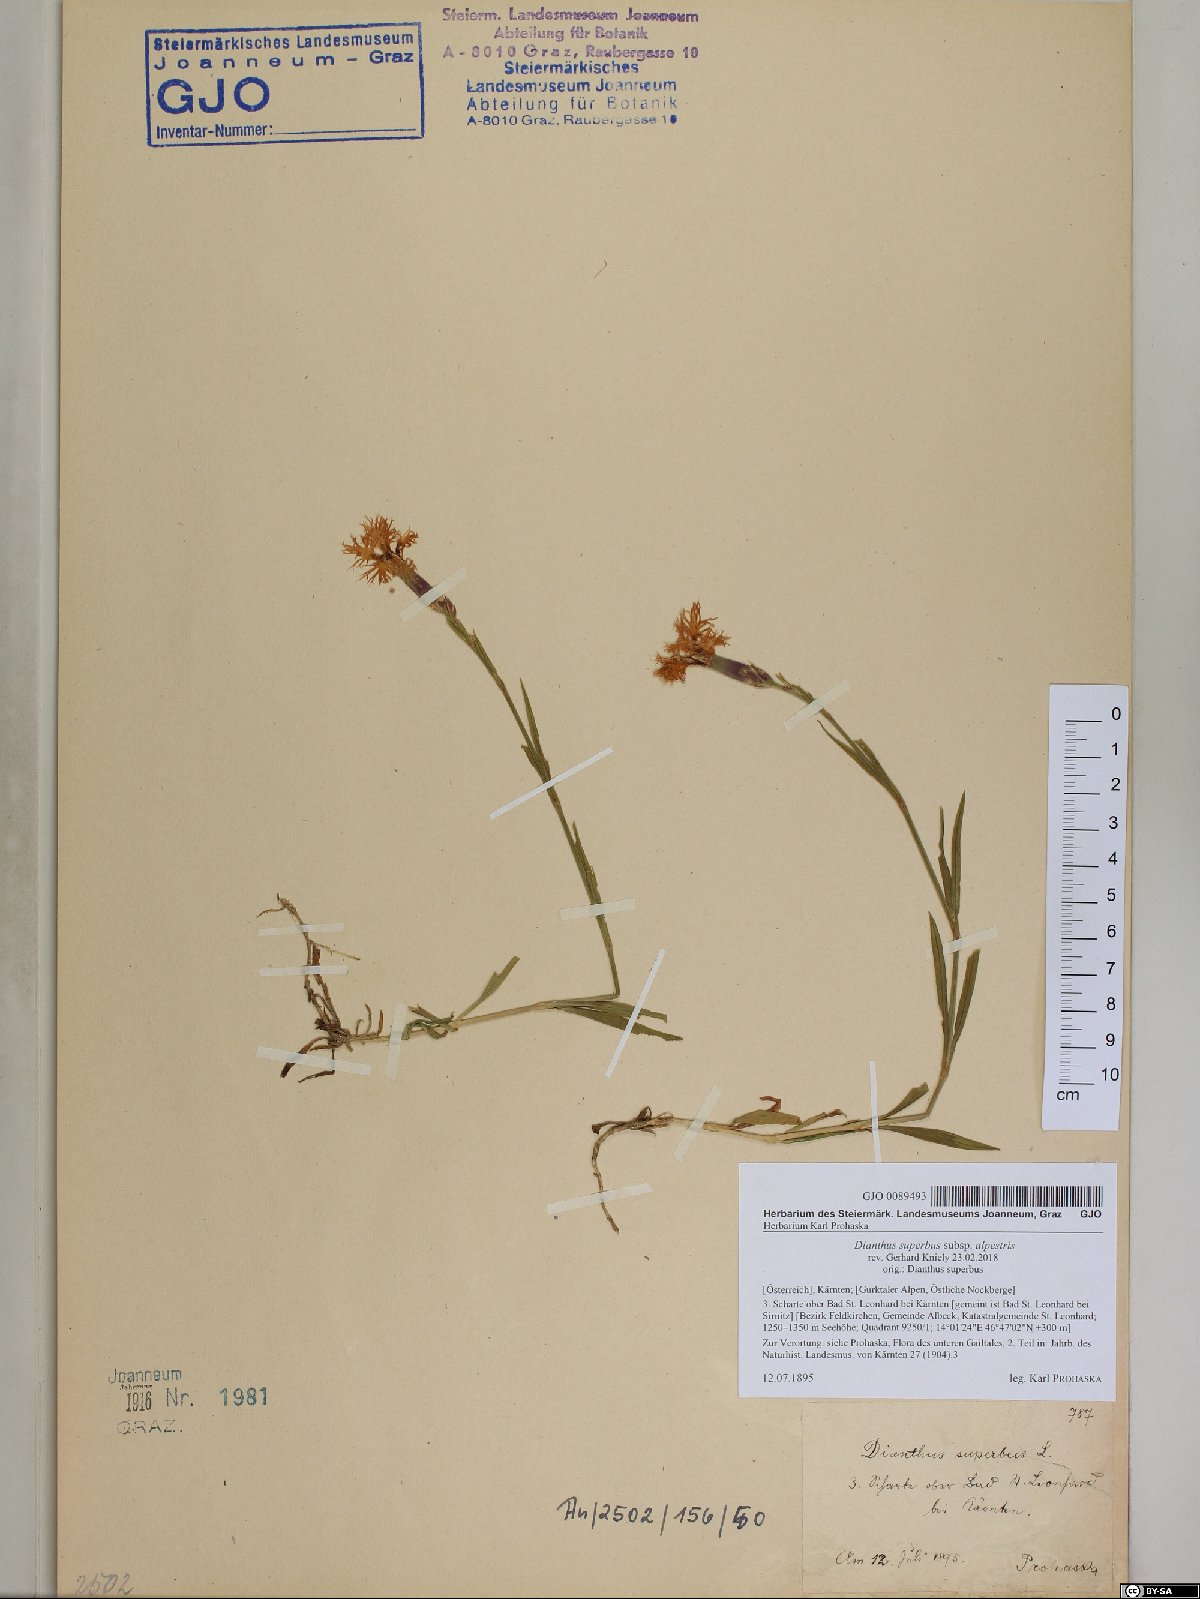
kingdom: Plantae
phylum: Tracheophyta
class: Magnoliopsida
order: Caryophyllales
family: Caryophyllaceae
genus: Dianthus
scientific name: Dianthus superbus
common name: Fringed pink
